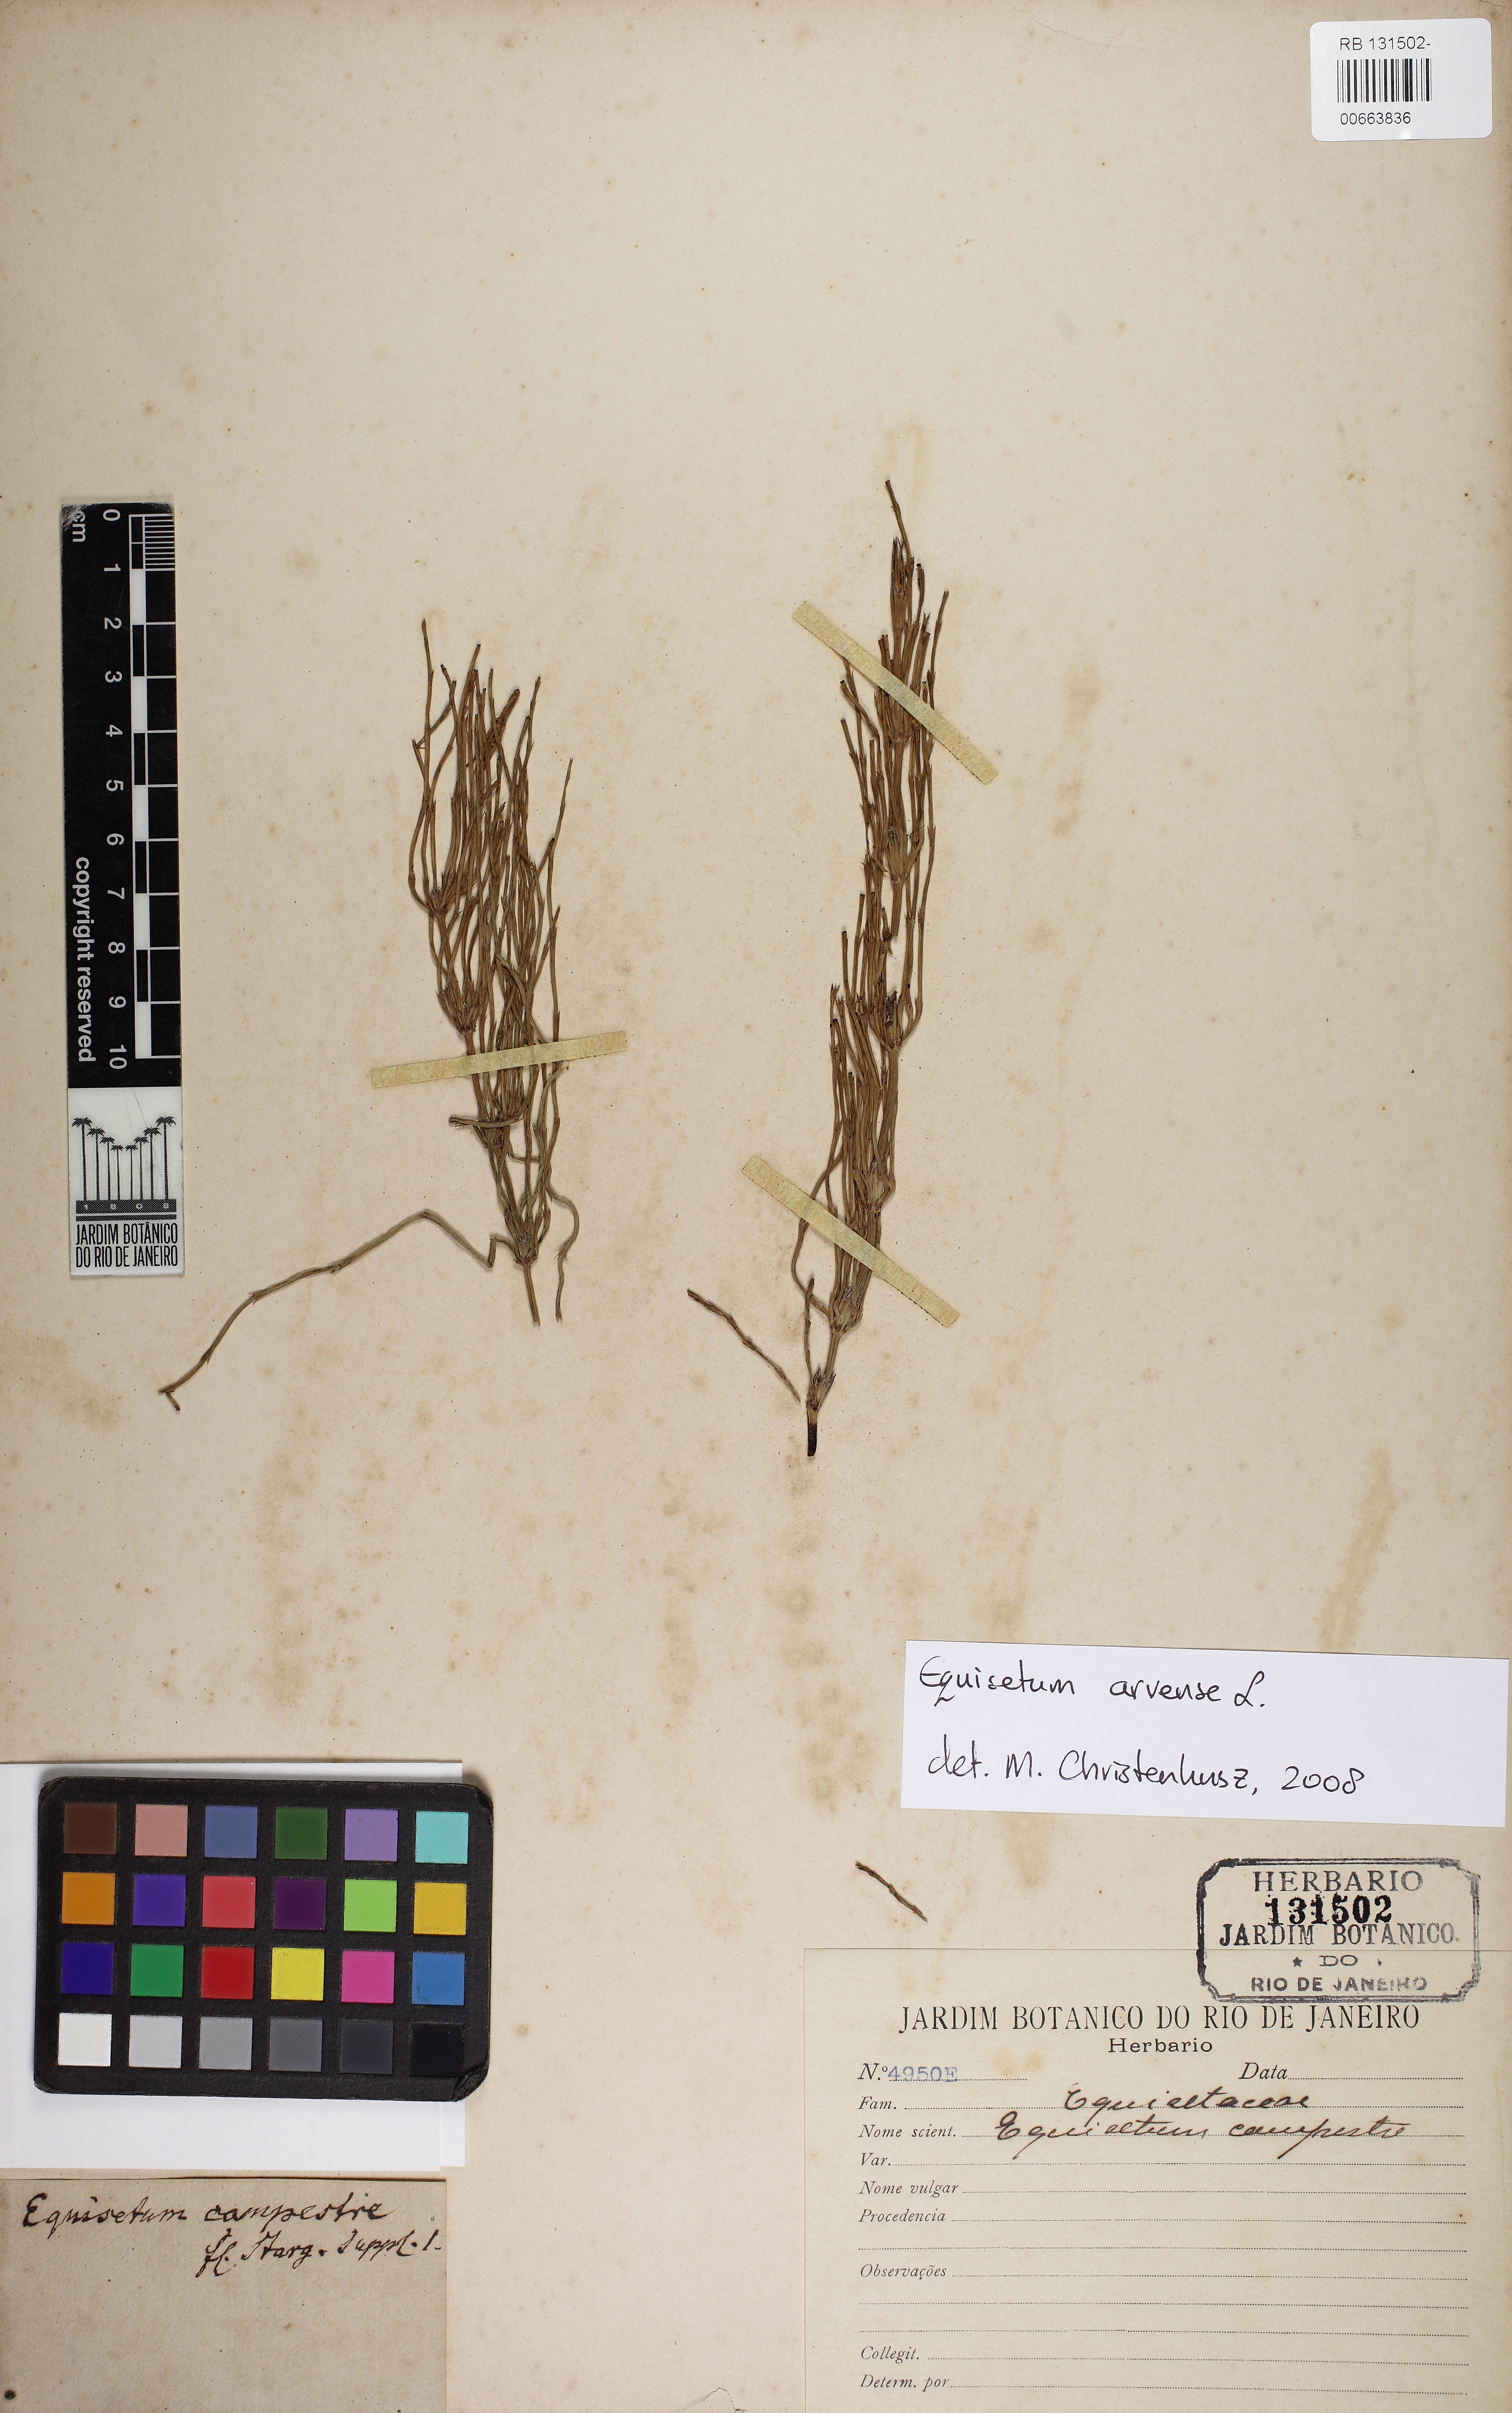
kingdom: Plantae
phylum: Tracheophyta
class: Polypodiopsida
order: Equisetales
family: Equisetaceae
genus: Equisetum
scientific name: Equisetum arvense
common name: Field horsetail
